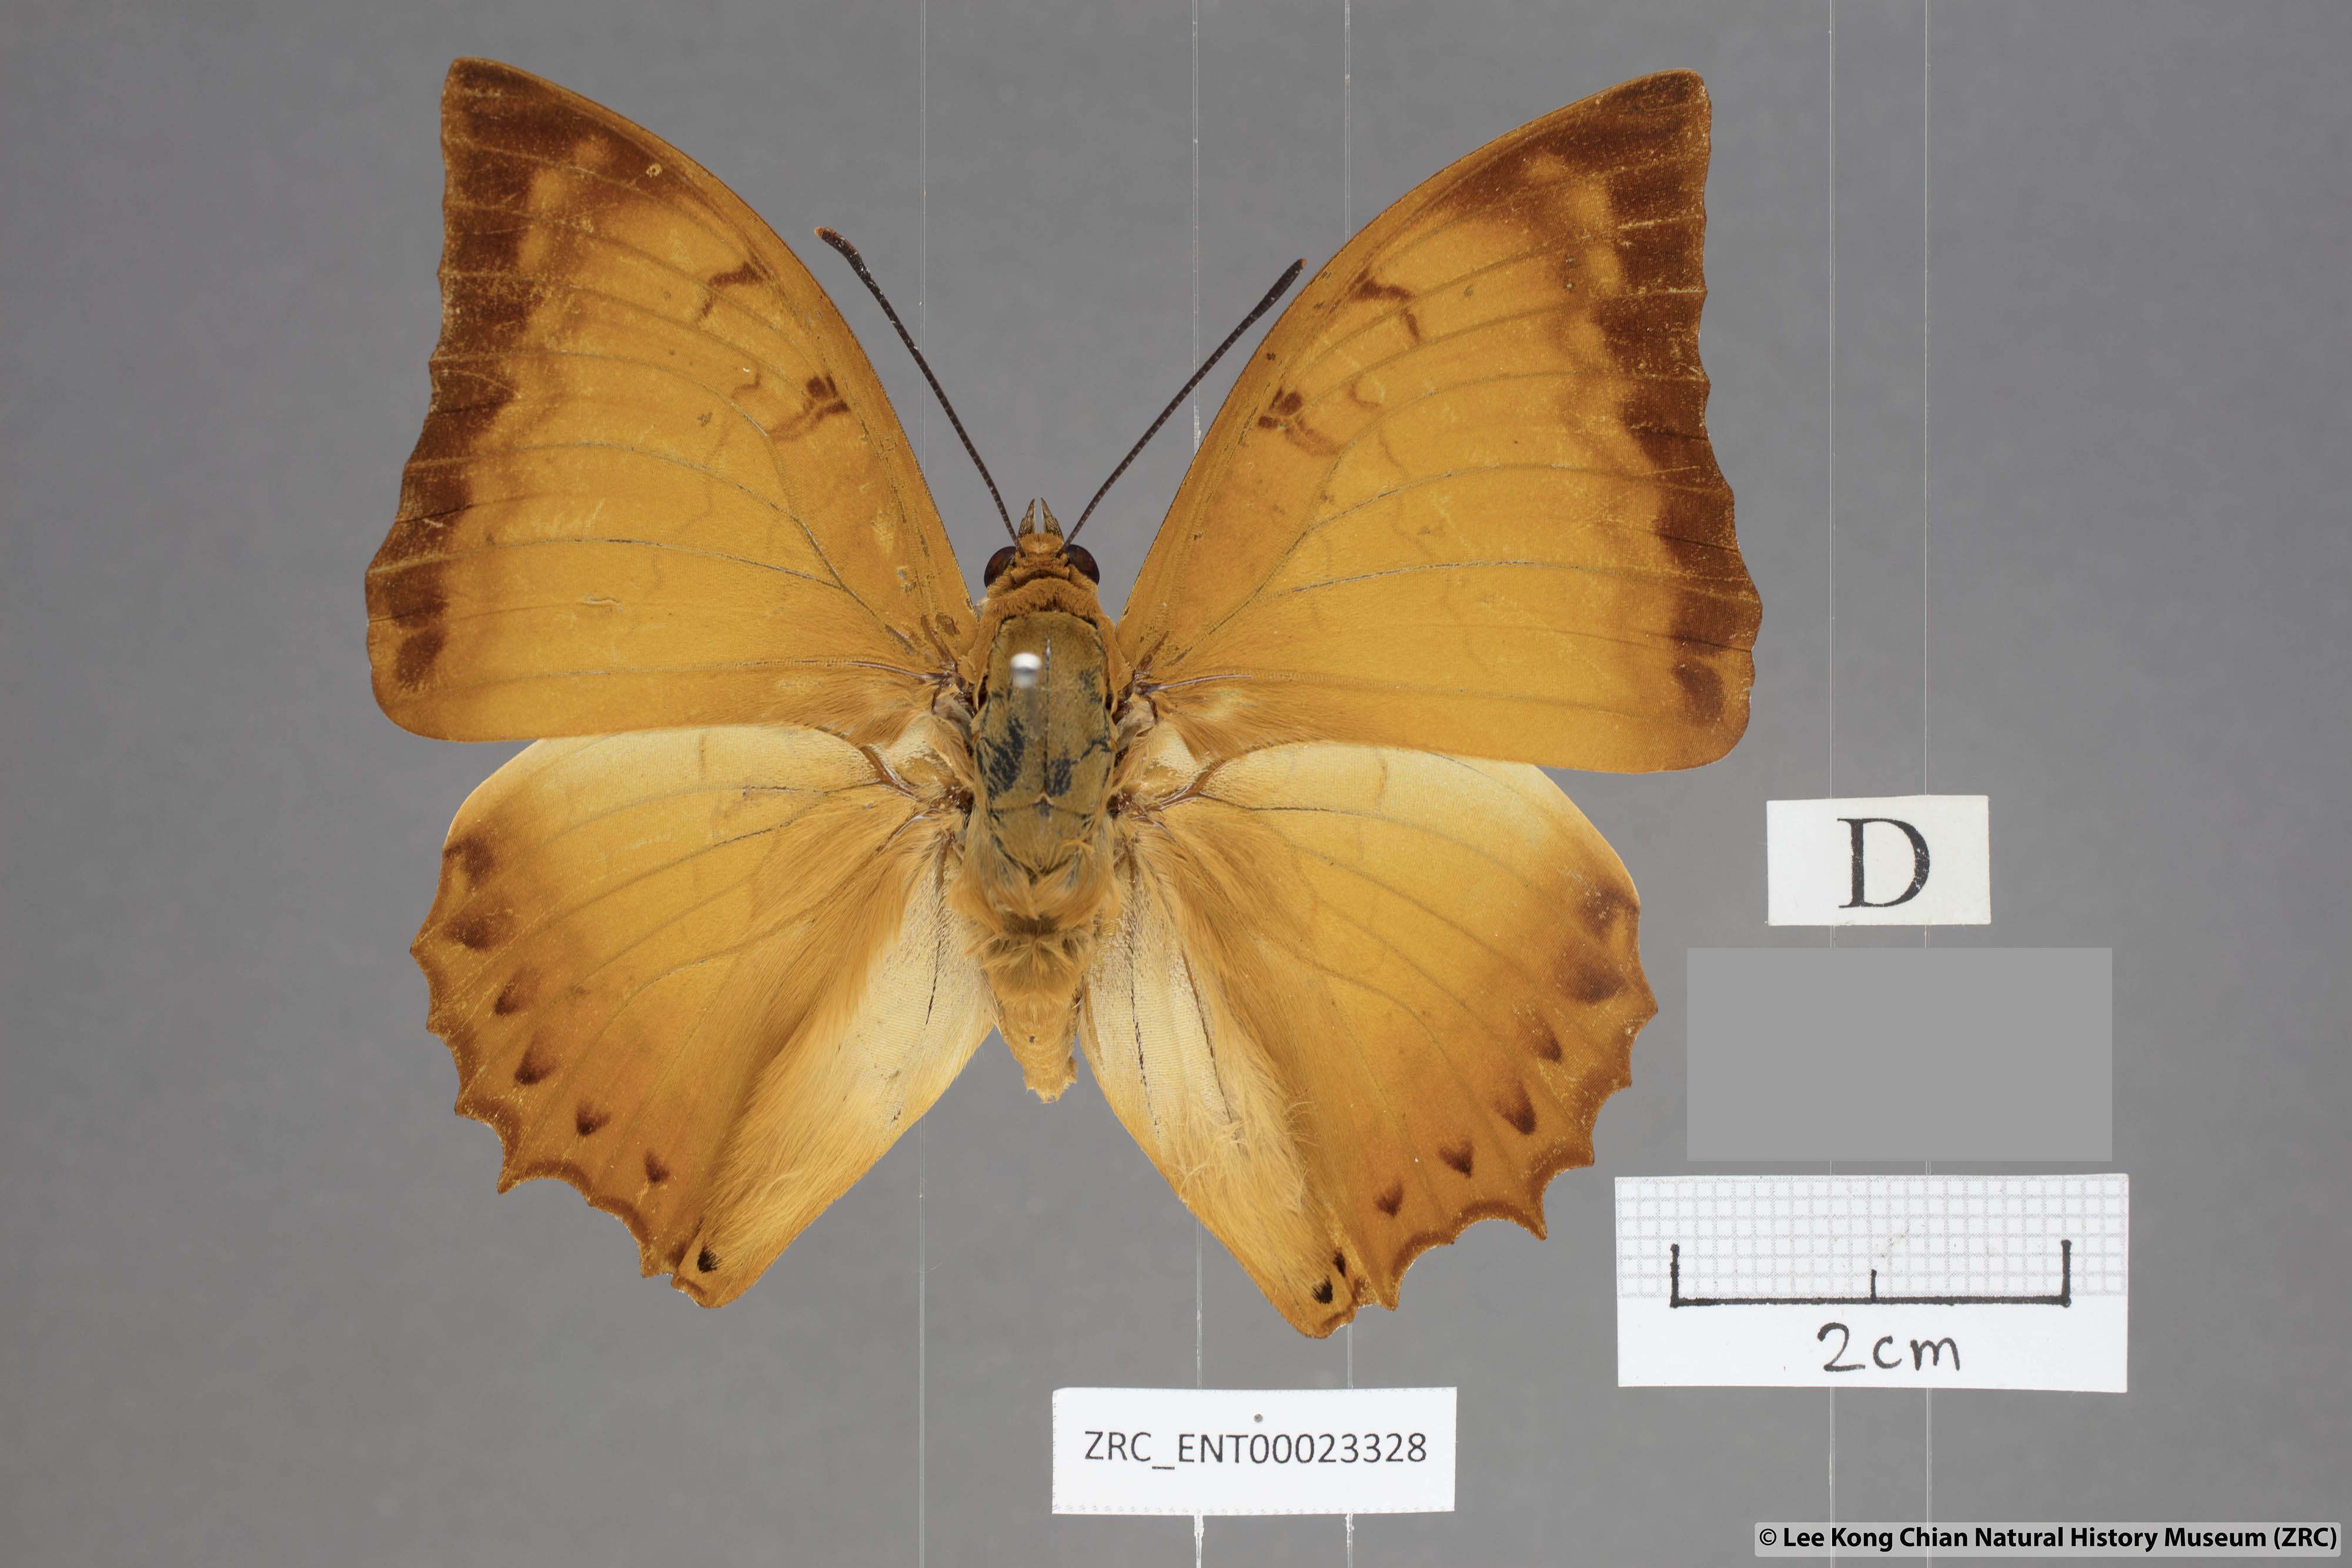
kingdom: Animalia
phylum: Arthropoda
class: Insecta
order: Lepidoptera
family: Nymphalidae
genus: Charaxes
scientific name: Charaxes distanti
